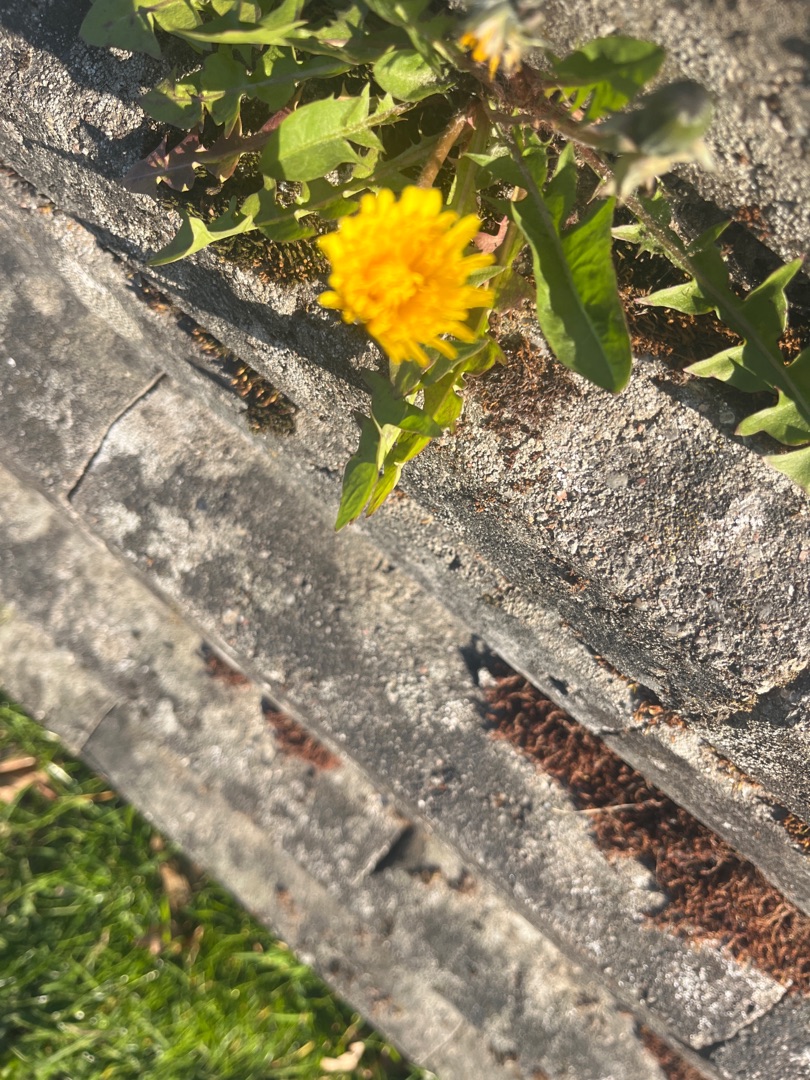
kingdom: Plantae
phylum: Tracheophyta
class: Magnoliopsida
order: Asterales
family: Asteraceae
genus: Taraxacum
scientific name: Taraxacum
